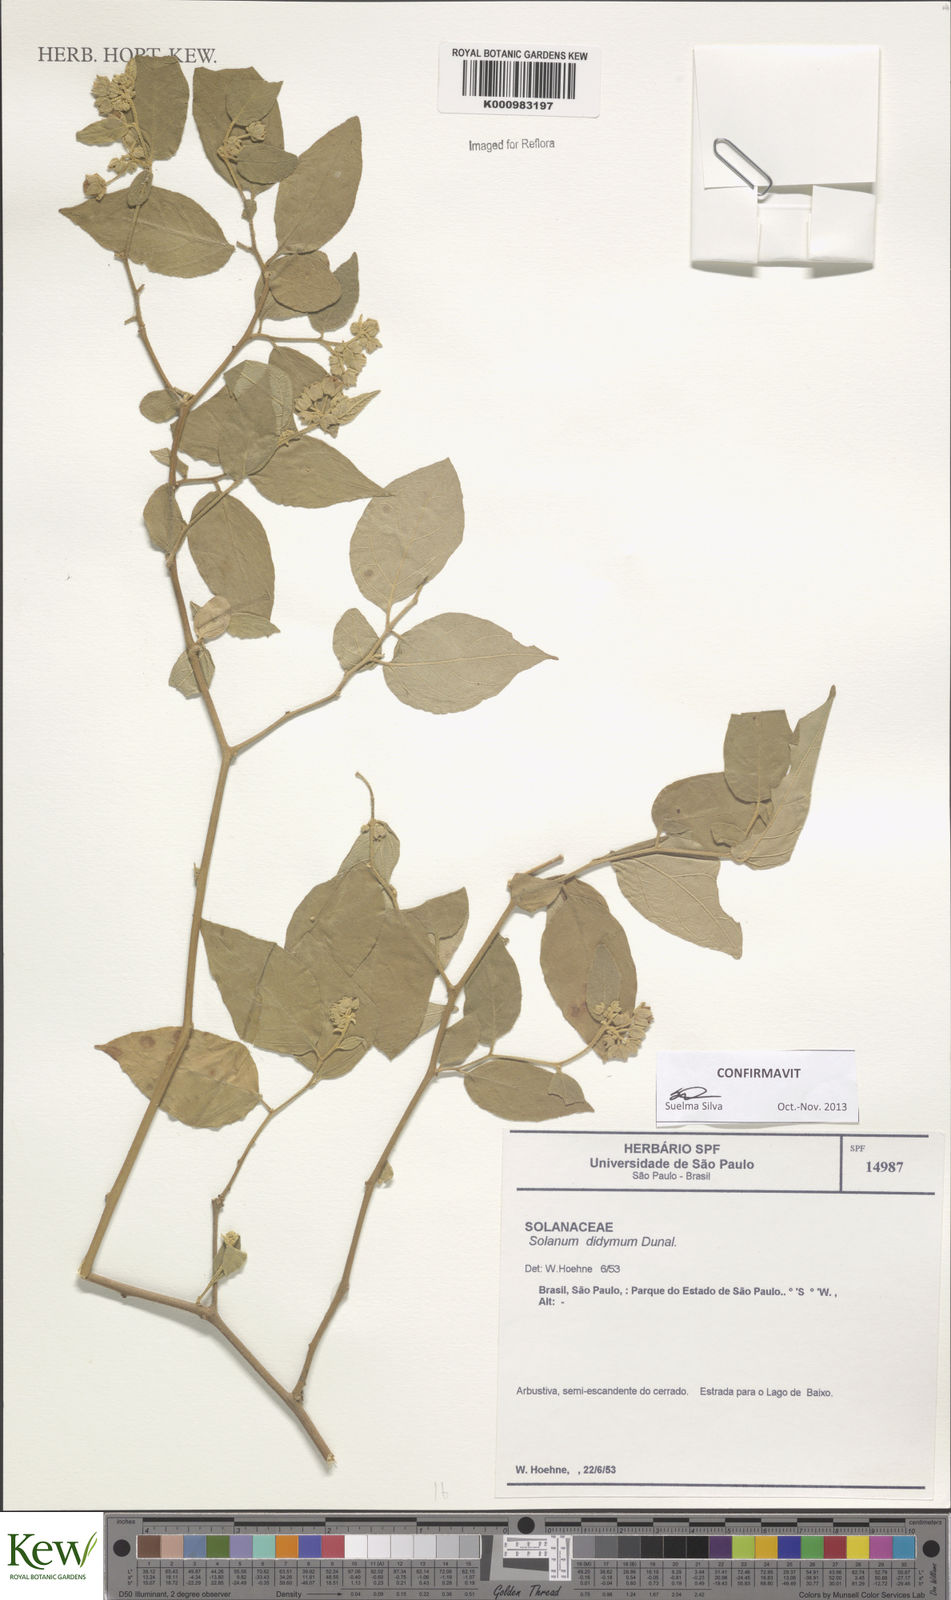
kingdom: Plantae
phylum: Tracheophyta
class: Magnoliopsida
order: Solanales
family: Solanaceae
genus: Solanum
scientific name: Solanum didymum
